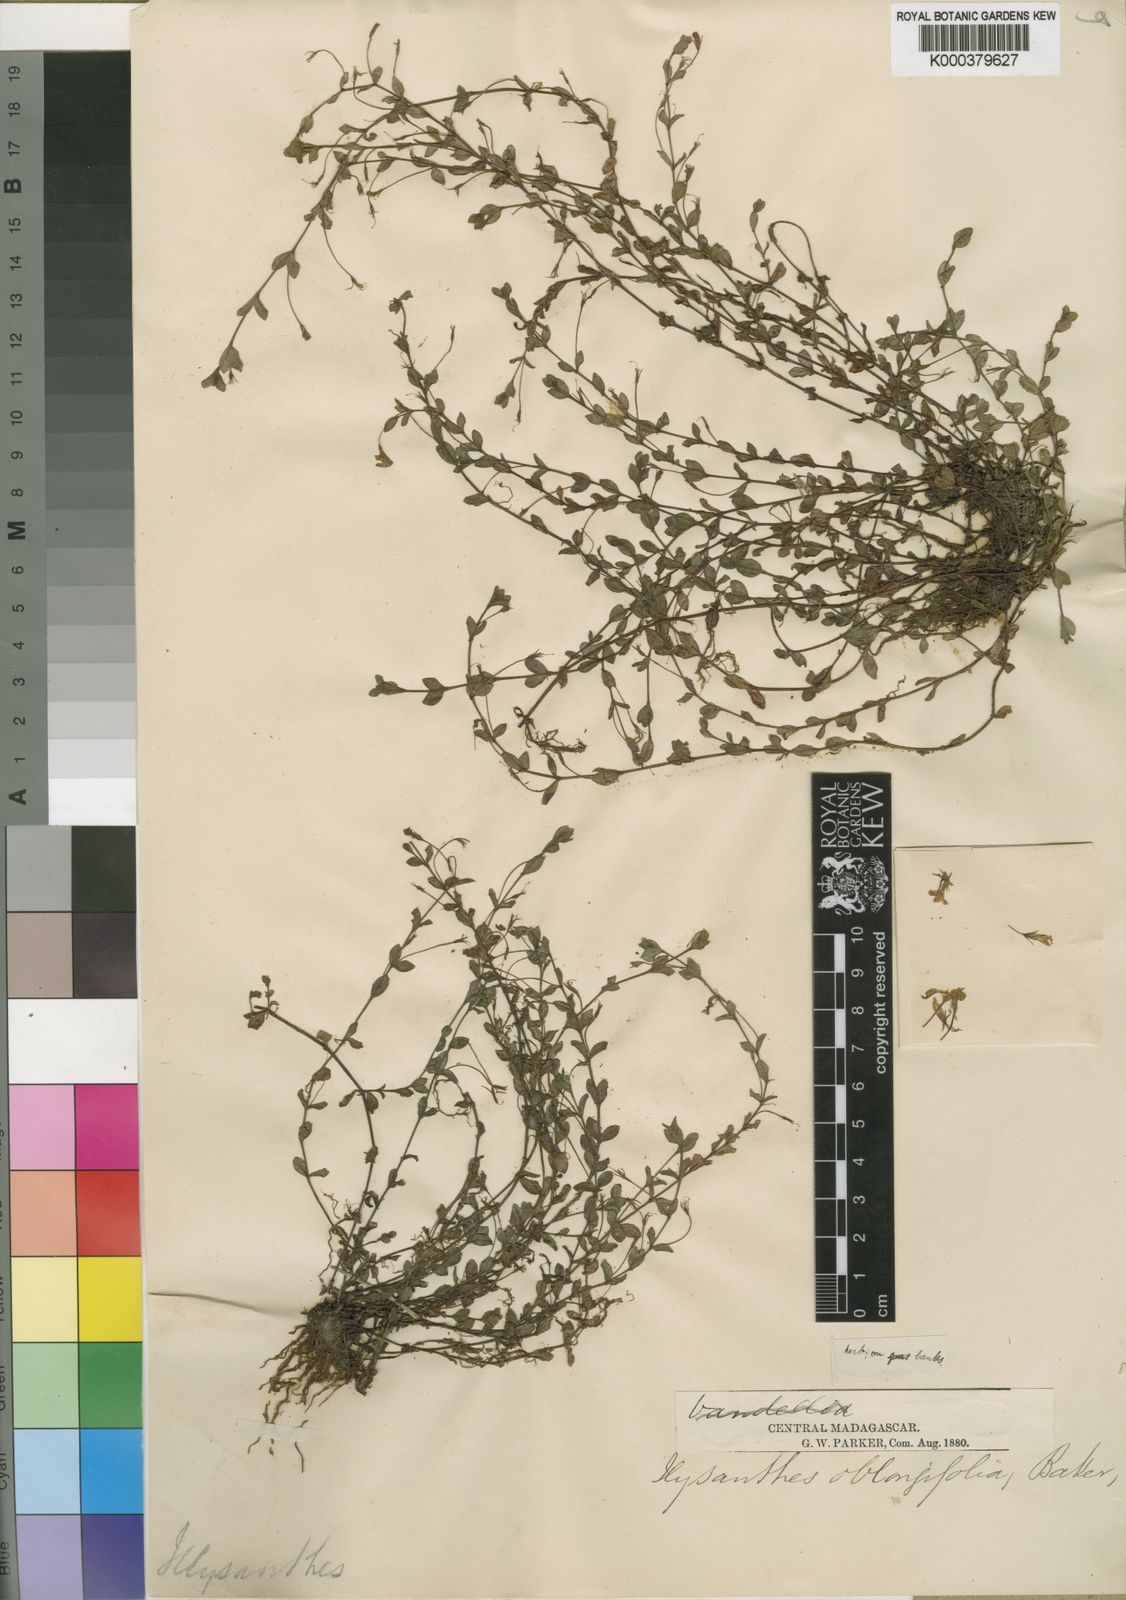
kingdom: Plantae
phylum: Tracheophyta
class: Magnoliopsida
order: Lamiales
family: Linderniaceae
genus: Lindernia
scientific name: Lindernia
